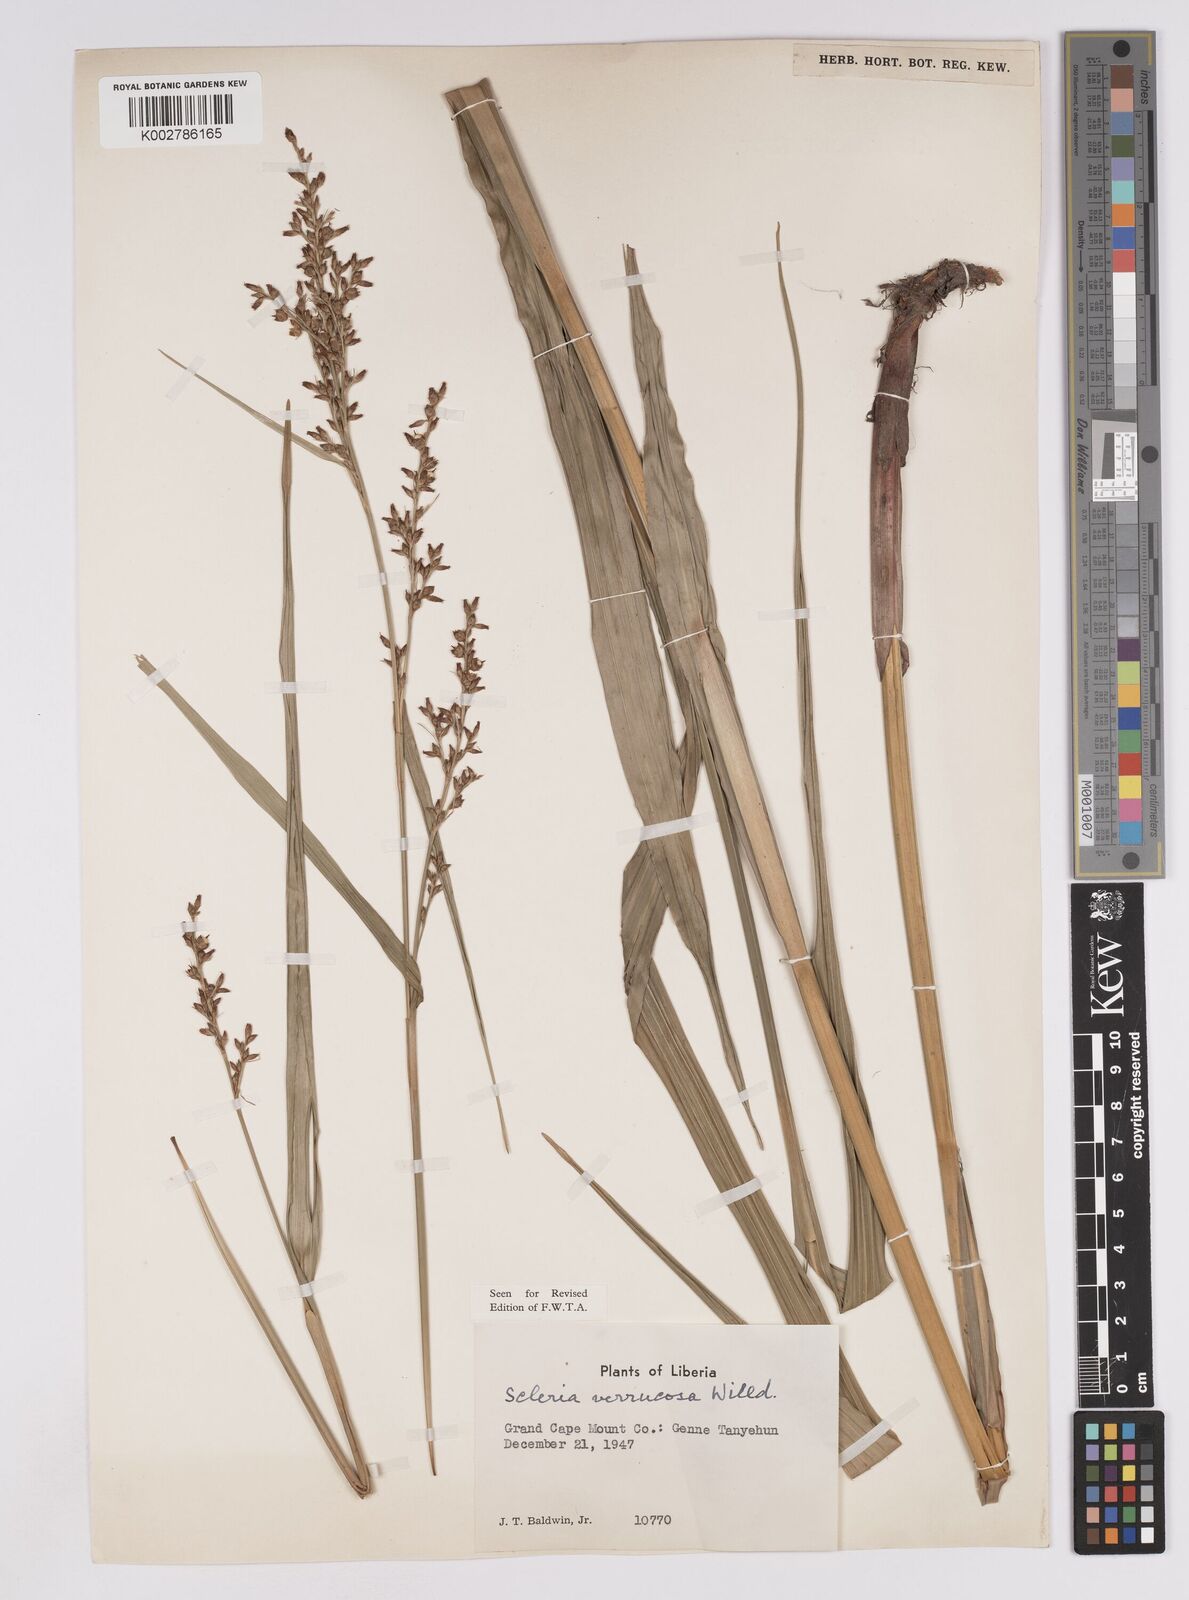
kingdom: Plantae
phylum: Tracheophyta
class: Liliopsida
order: Poales
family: Cyperaceae
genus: Scleria
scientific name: Scleria verrucosa
